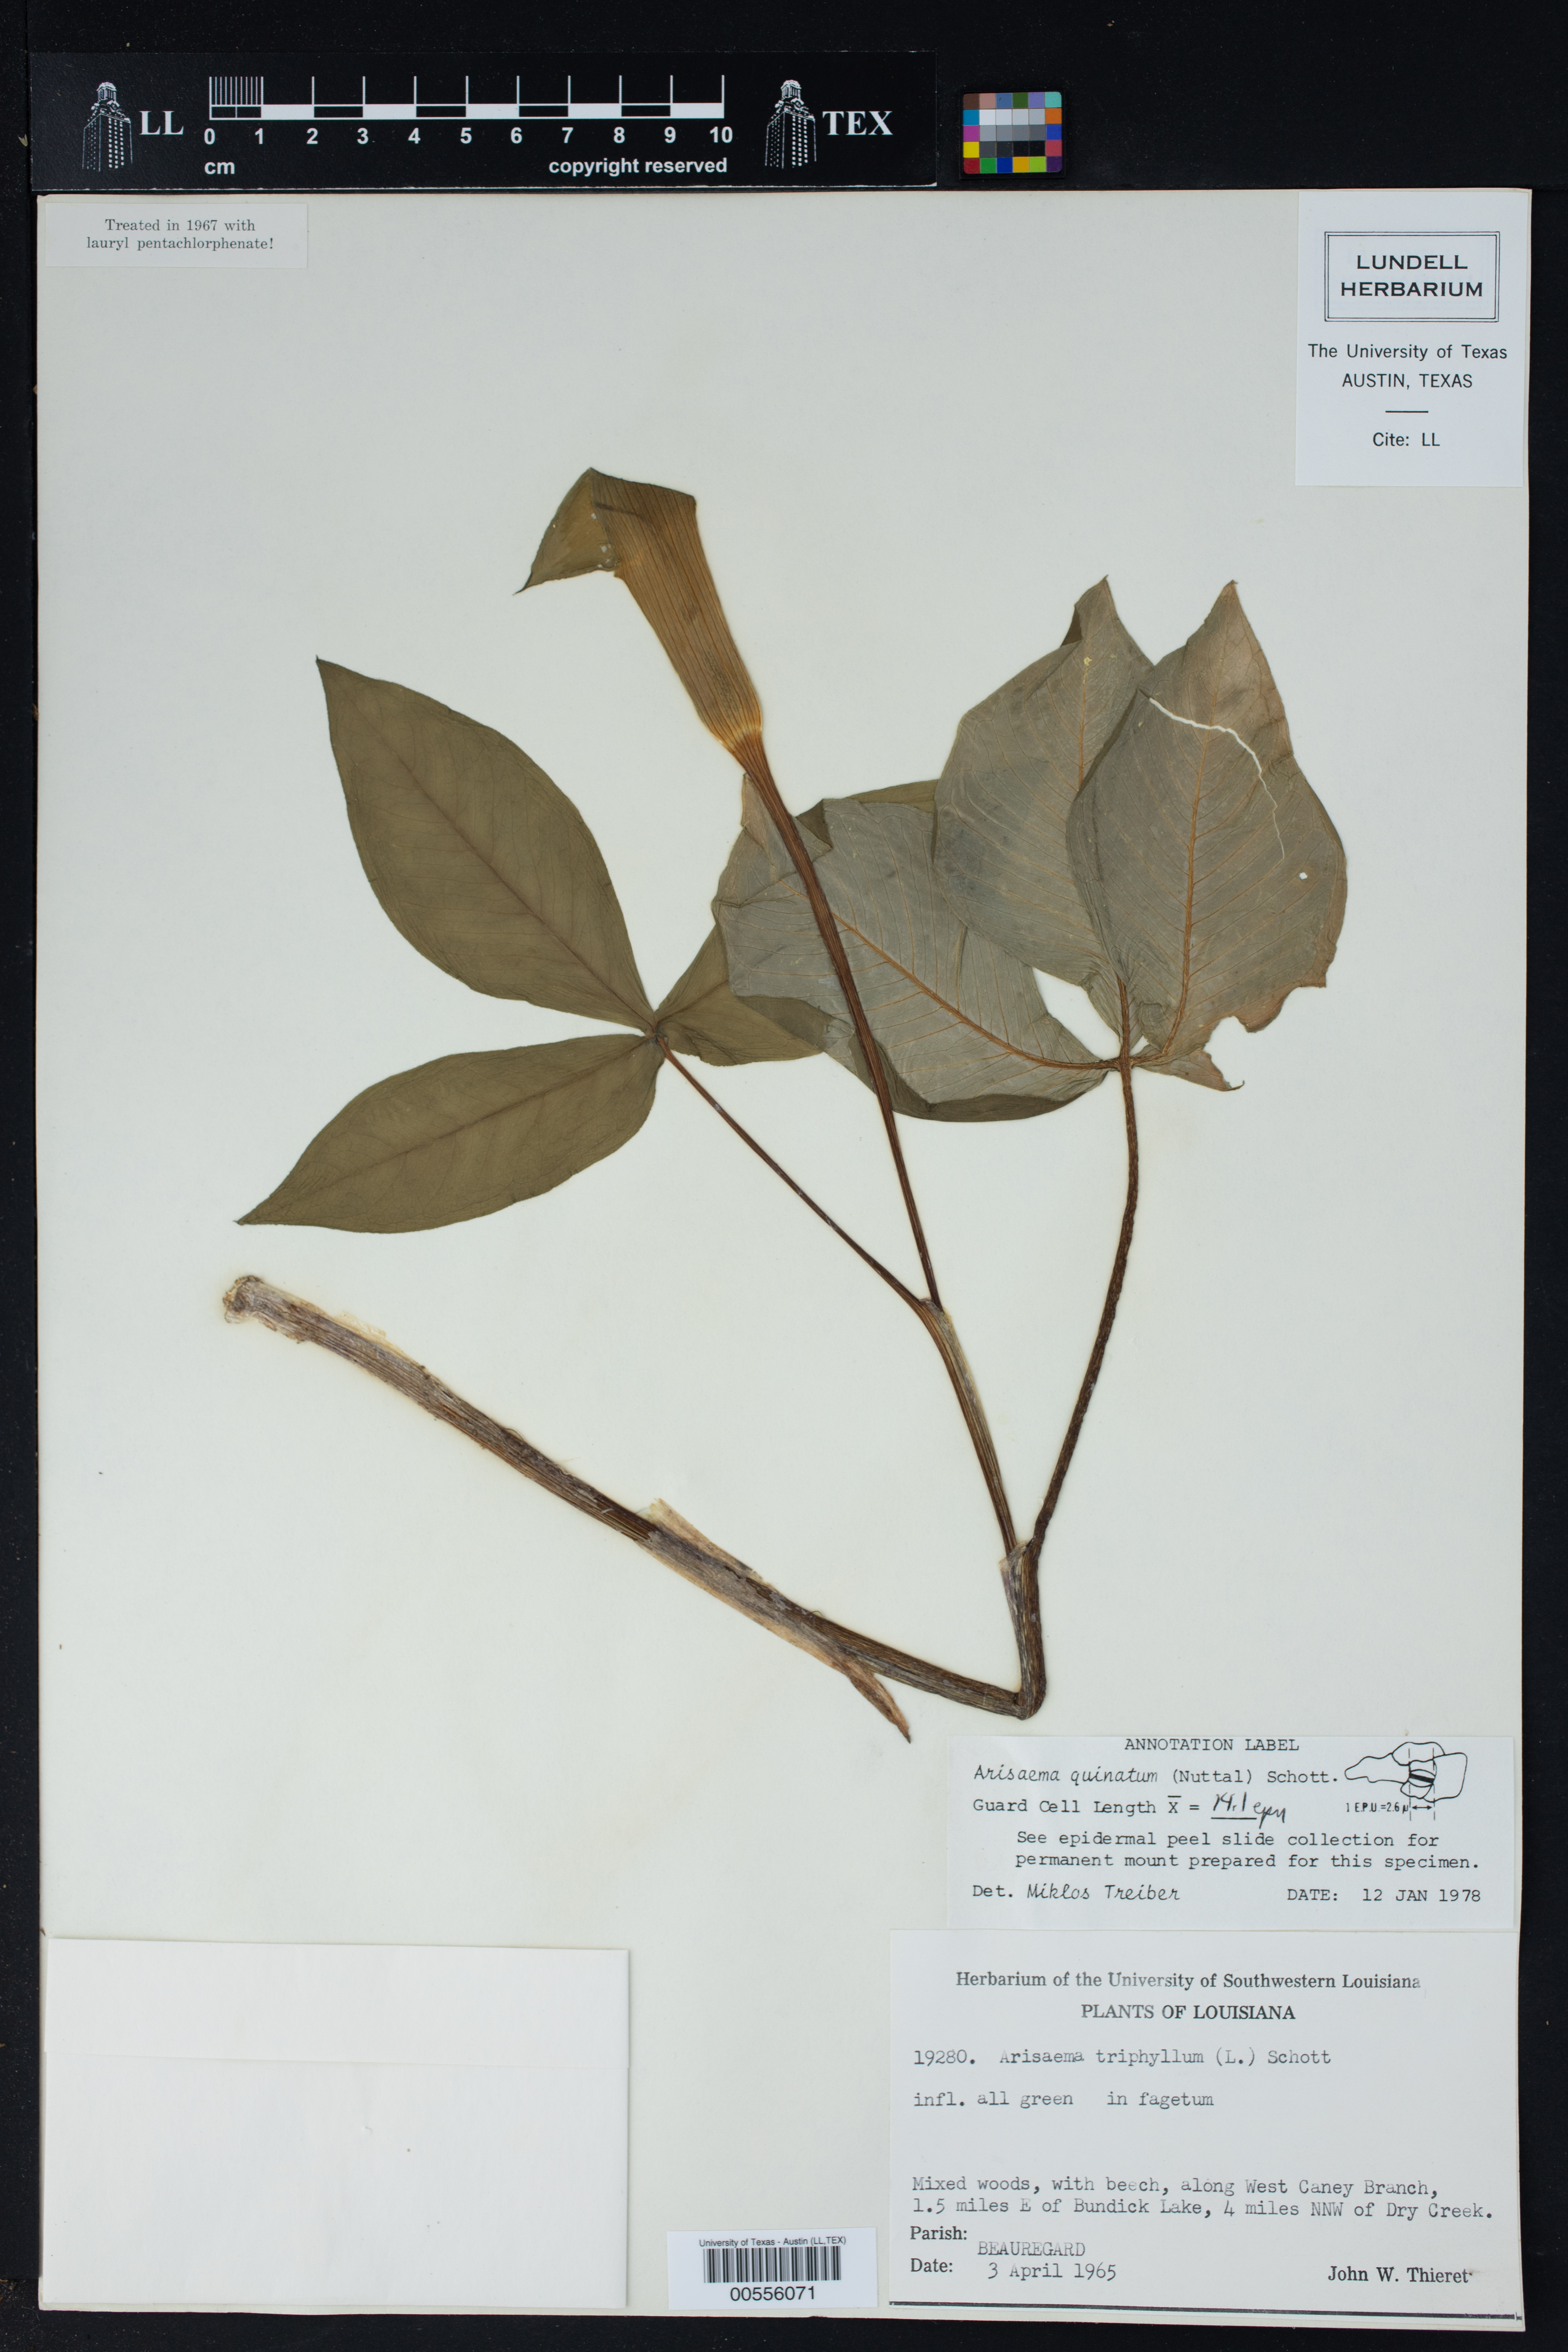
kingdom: Plantae
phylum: Tracheophyta
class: Liliopsida
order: Alismatales
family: Araceae
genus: Arisaema
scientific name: Arisaema quinatum
